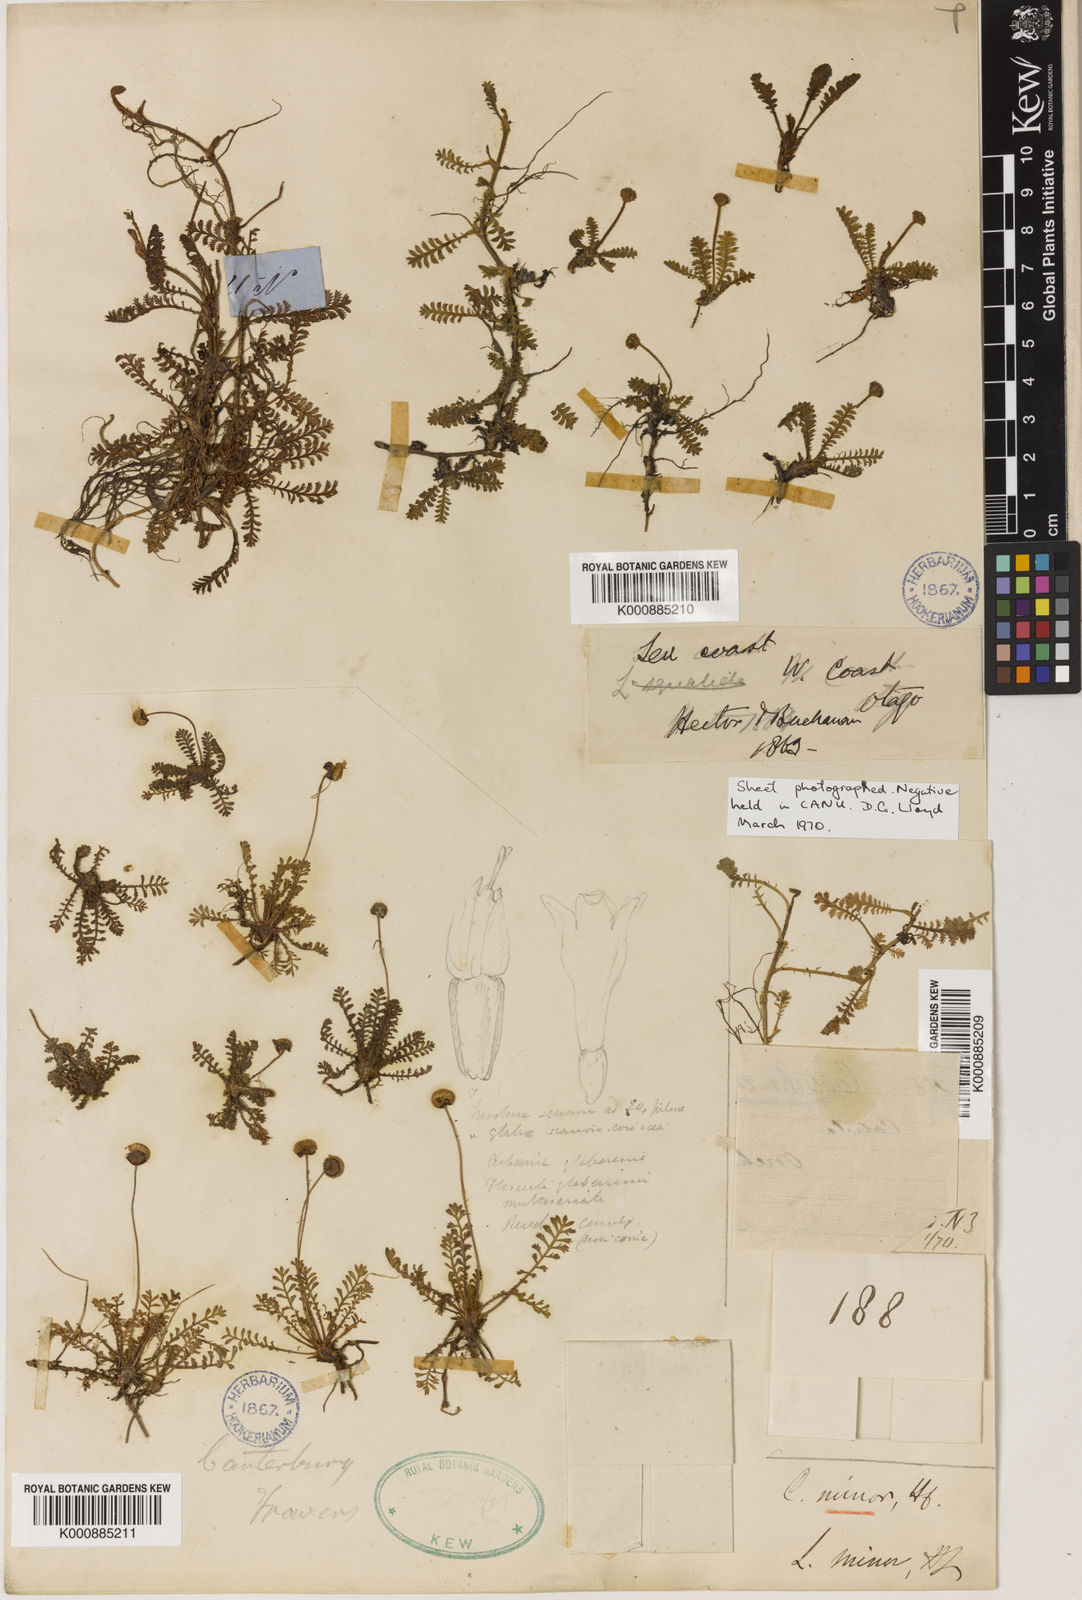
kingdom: Plantae
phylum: Tracheophyta
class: Magnoliopsida
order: Asterales
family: Asteraceae
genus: Leptinella
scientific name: Leptinella minor
